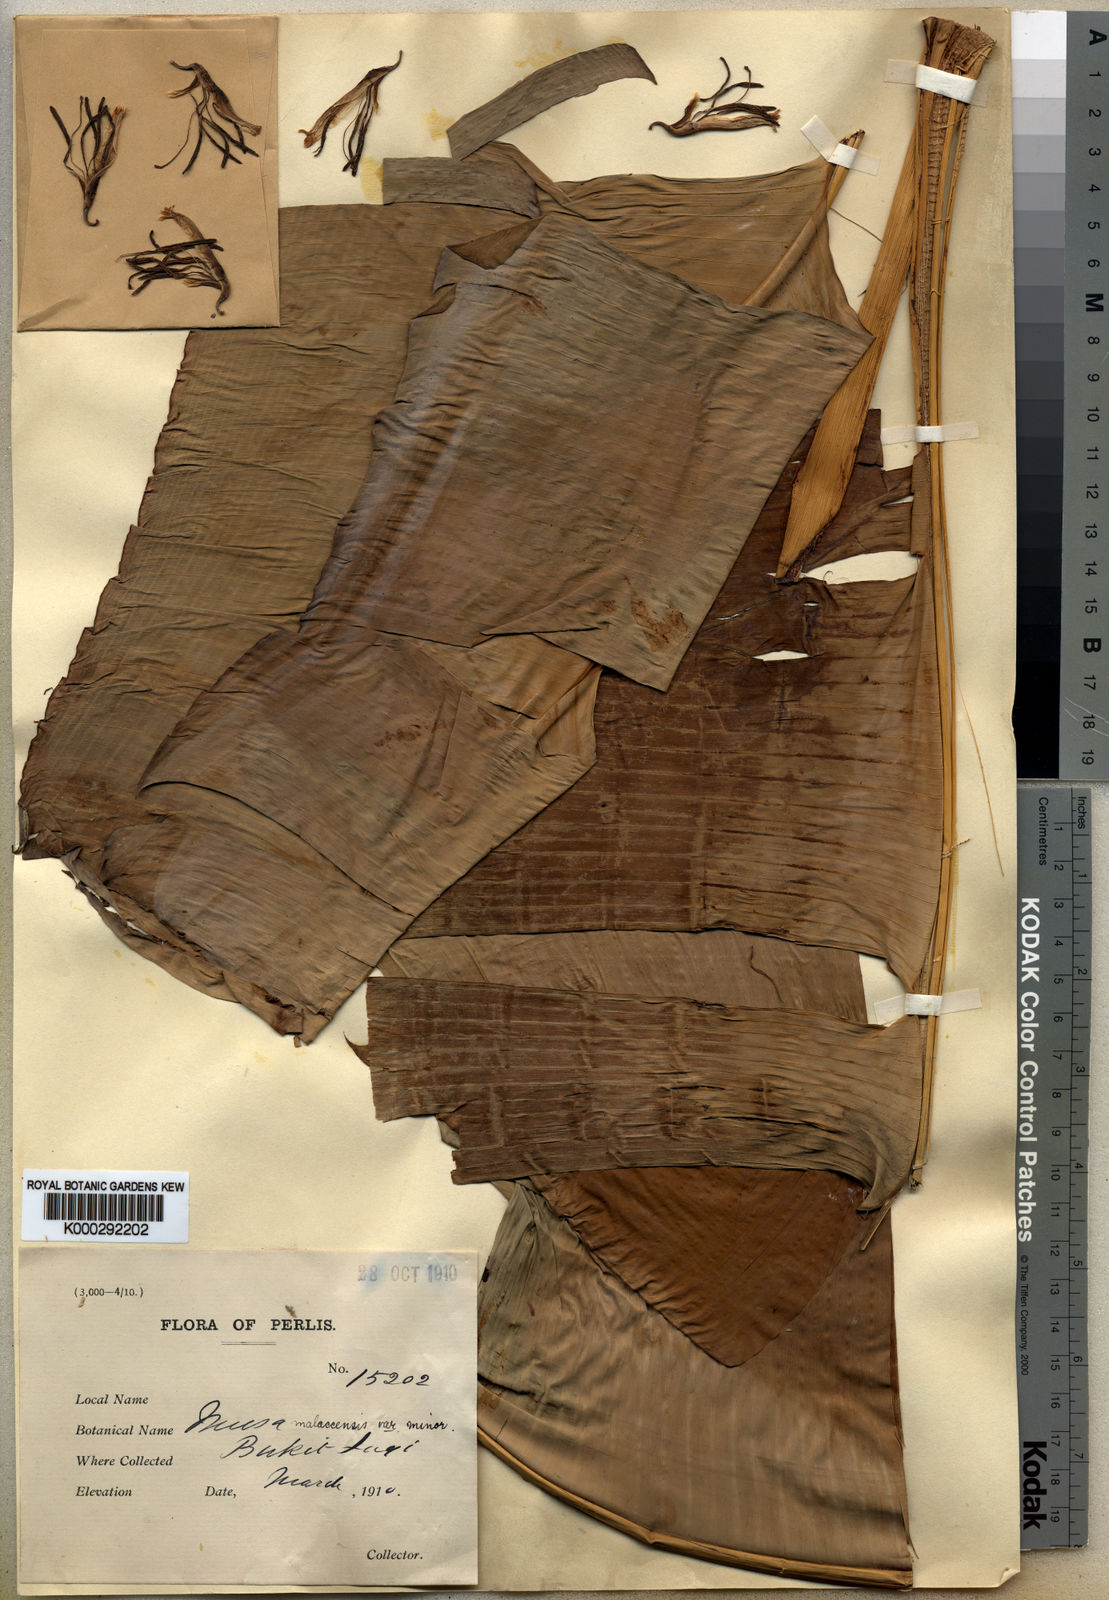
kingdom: Plantae
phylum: Tracheophyta
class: Liliopsida
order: Zingiberales
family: Musaceae
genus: Musa
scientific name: Musa acuminata
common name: Edible banana
